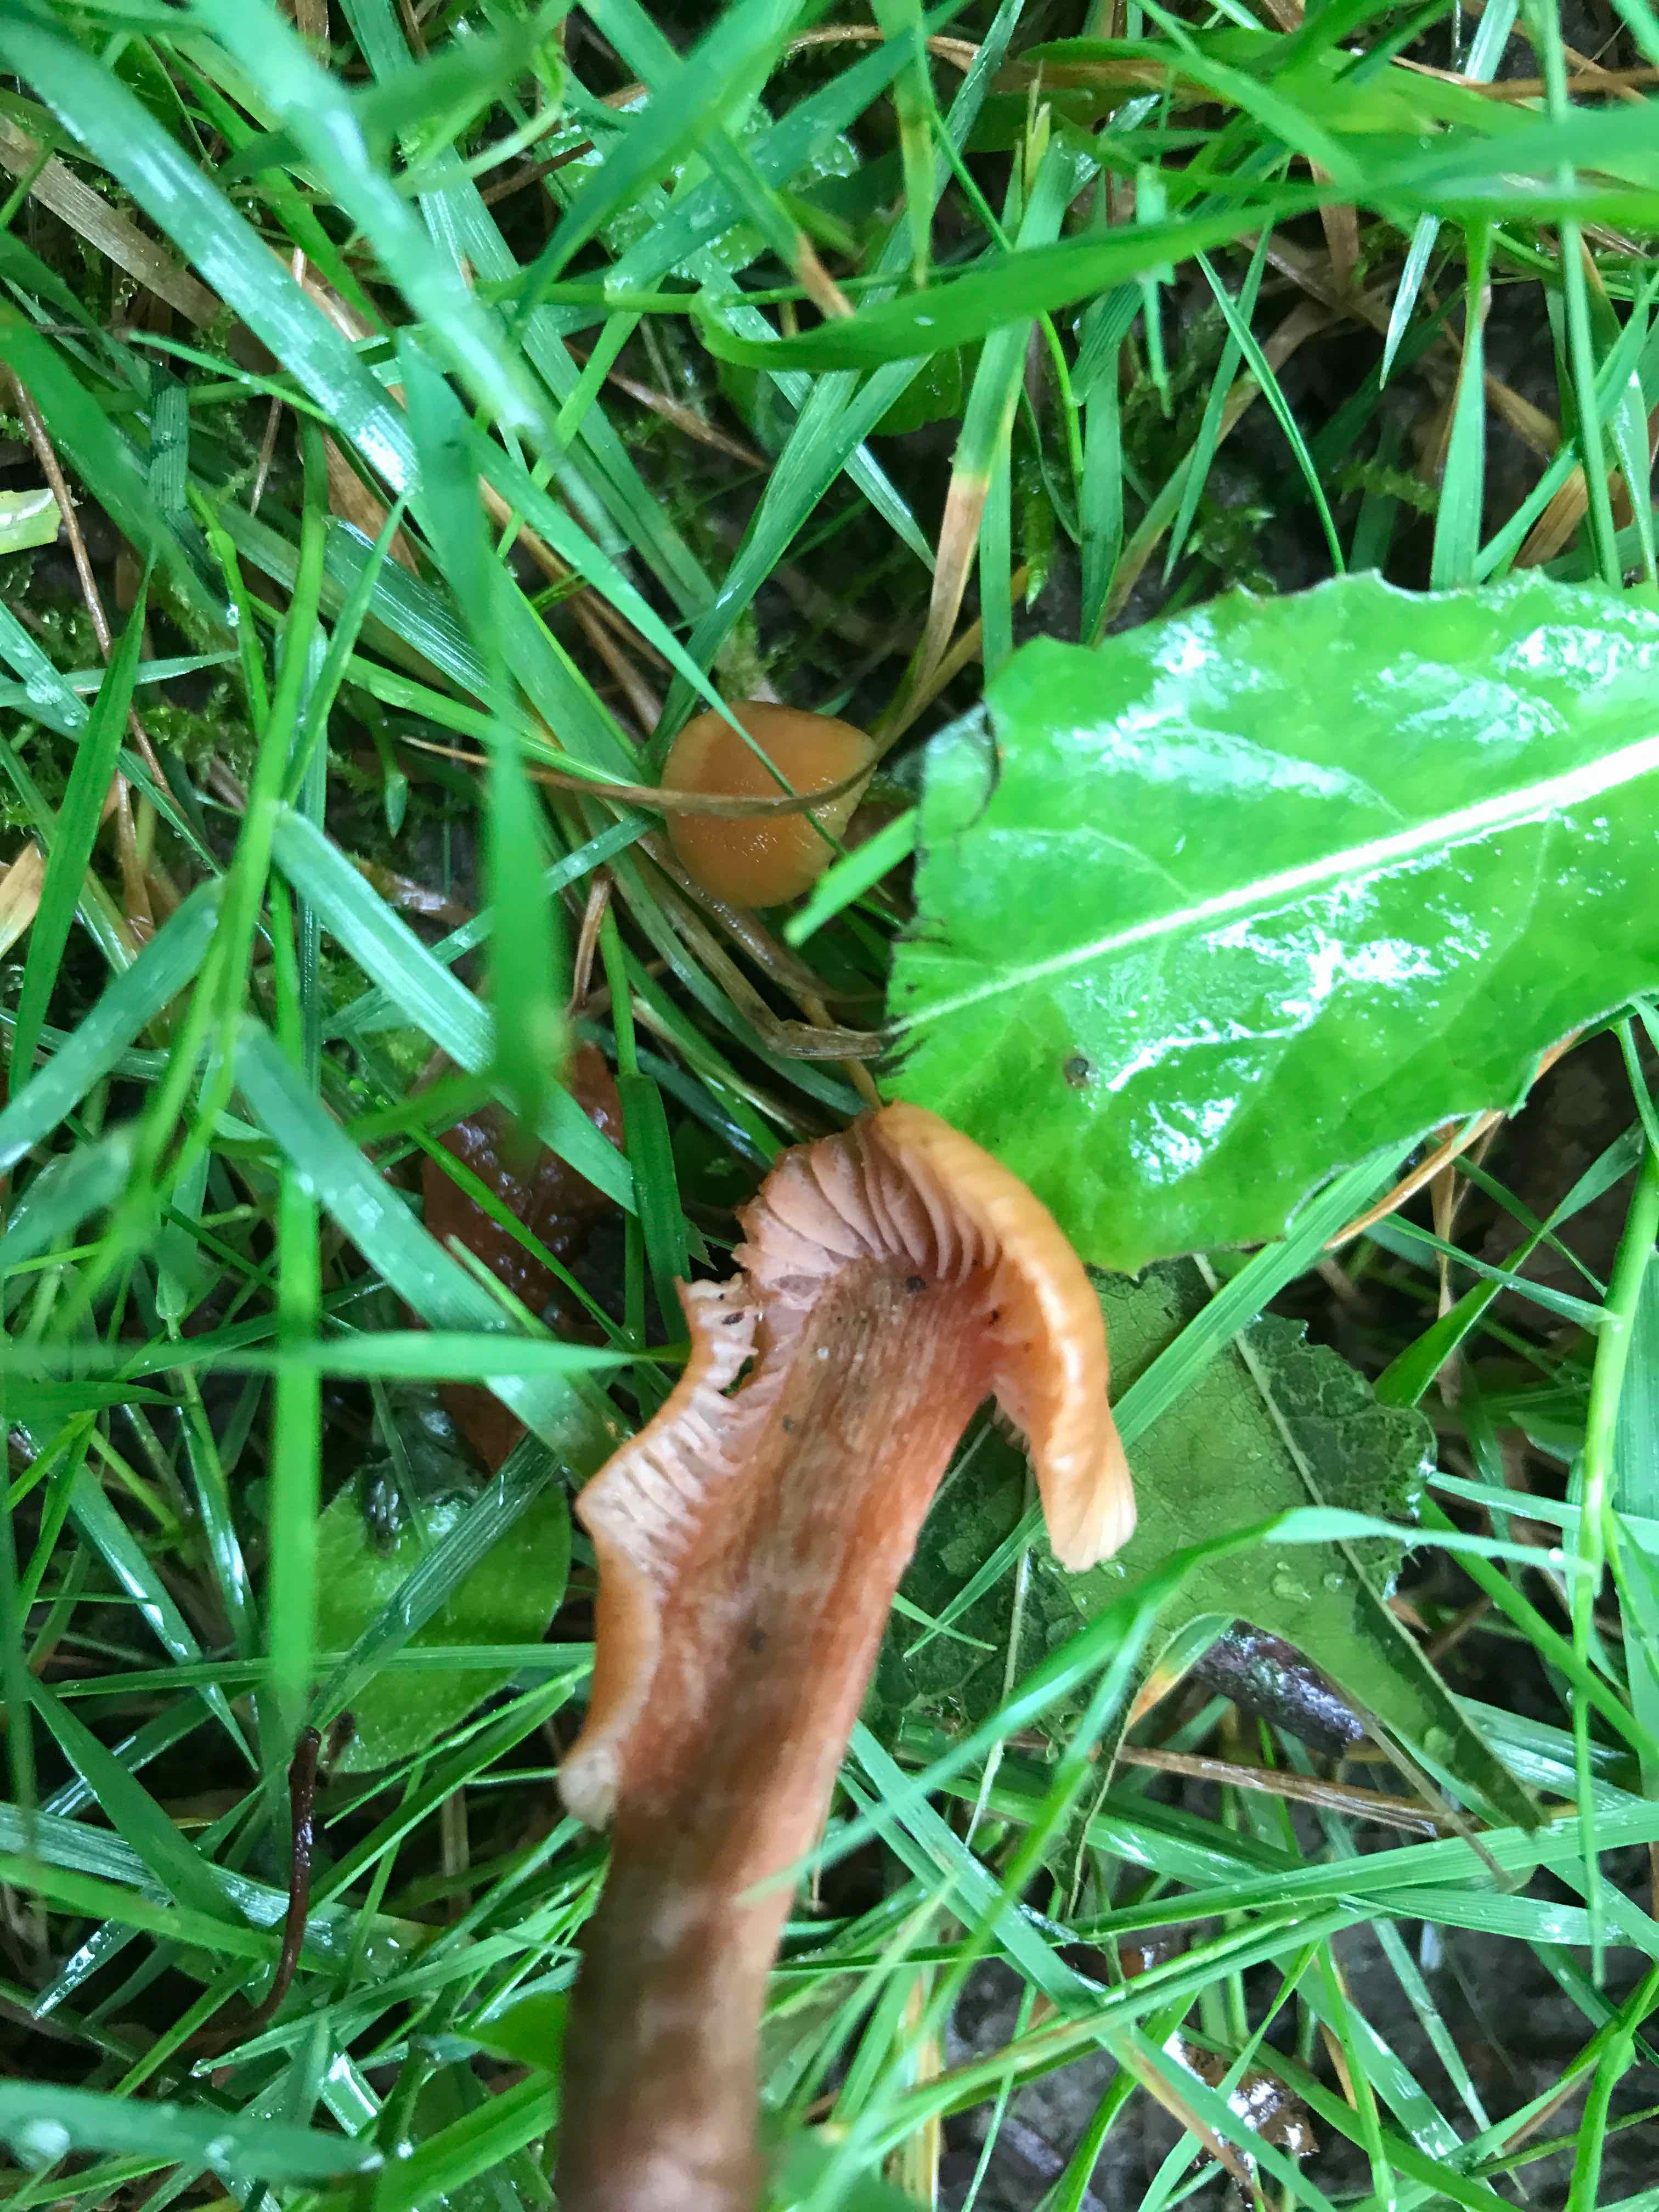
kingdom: Fungi
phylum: Basidiomycota
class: Agaricomycetes
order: Agaricales
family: Hydnangiaceae
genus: Laccaria
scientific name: Laccaria laccata
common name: rød ametysthat
